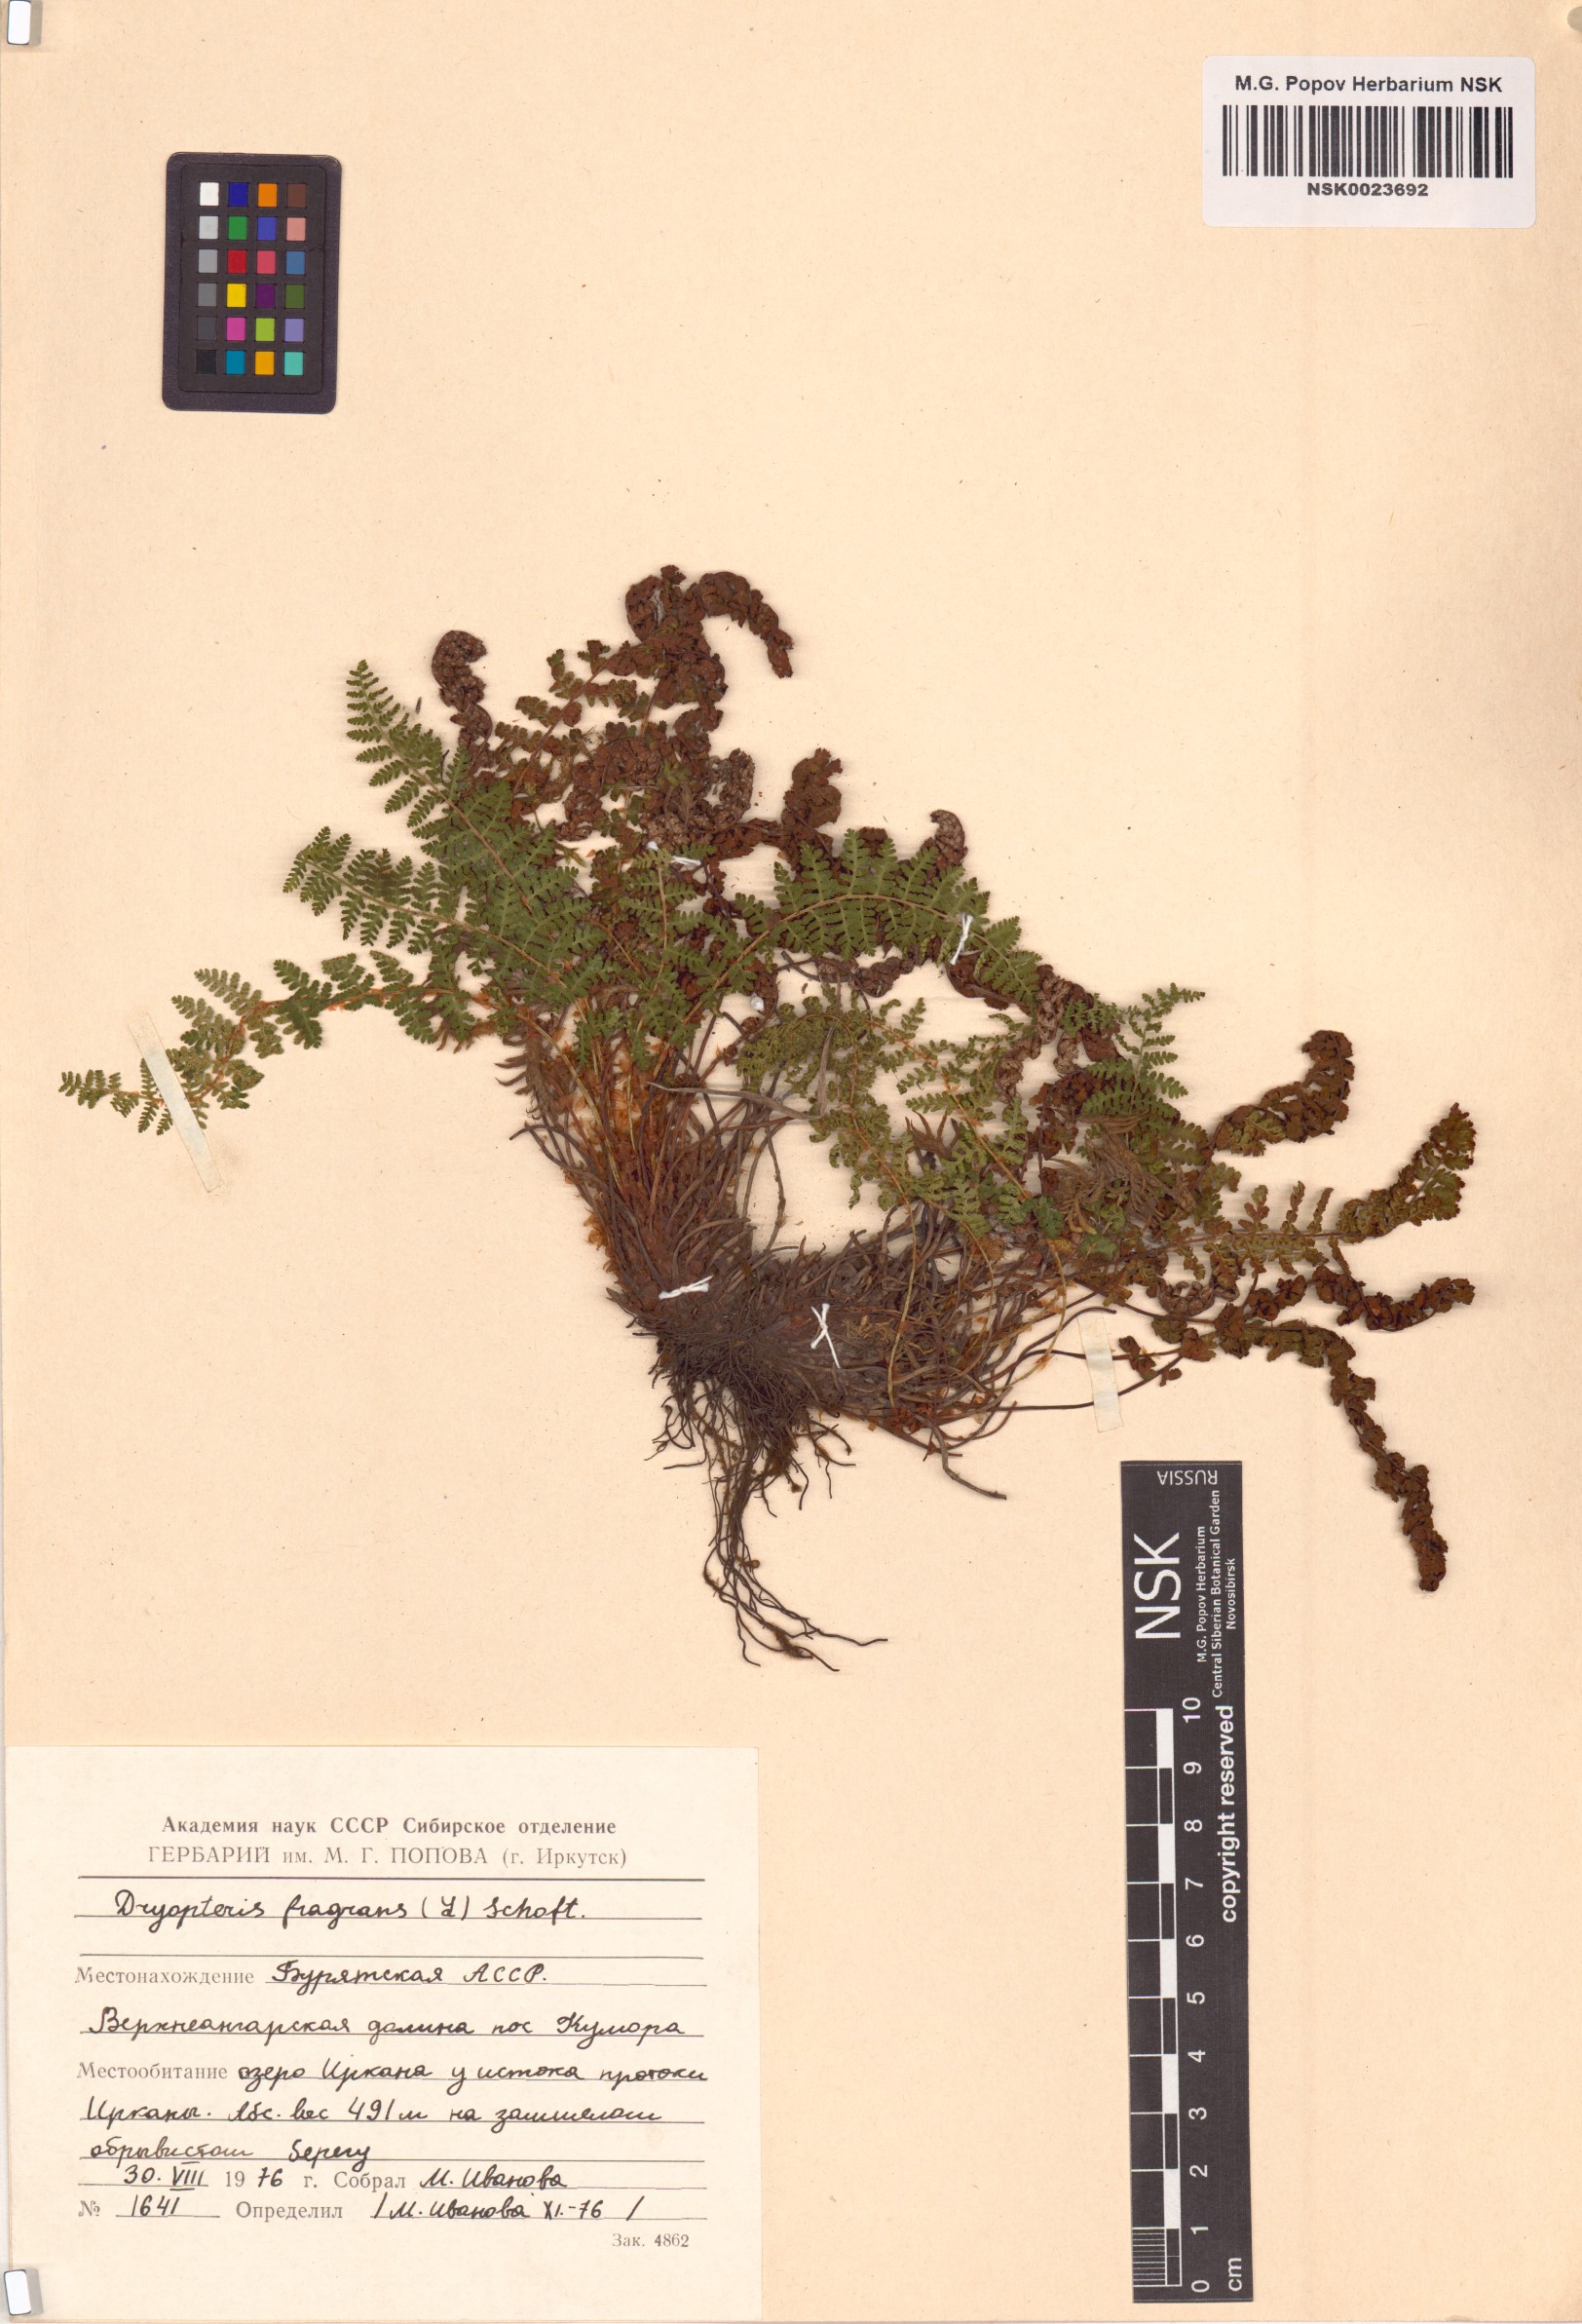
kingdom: Plantae
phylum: Tracheophyta
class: Polypodiopsida
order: Polypodiales
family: Dryopteridaceae
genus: Dryopteris
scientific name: Dryopteris fragrans
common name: Fragrant wood fern
